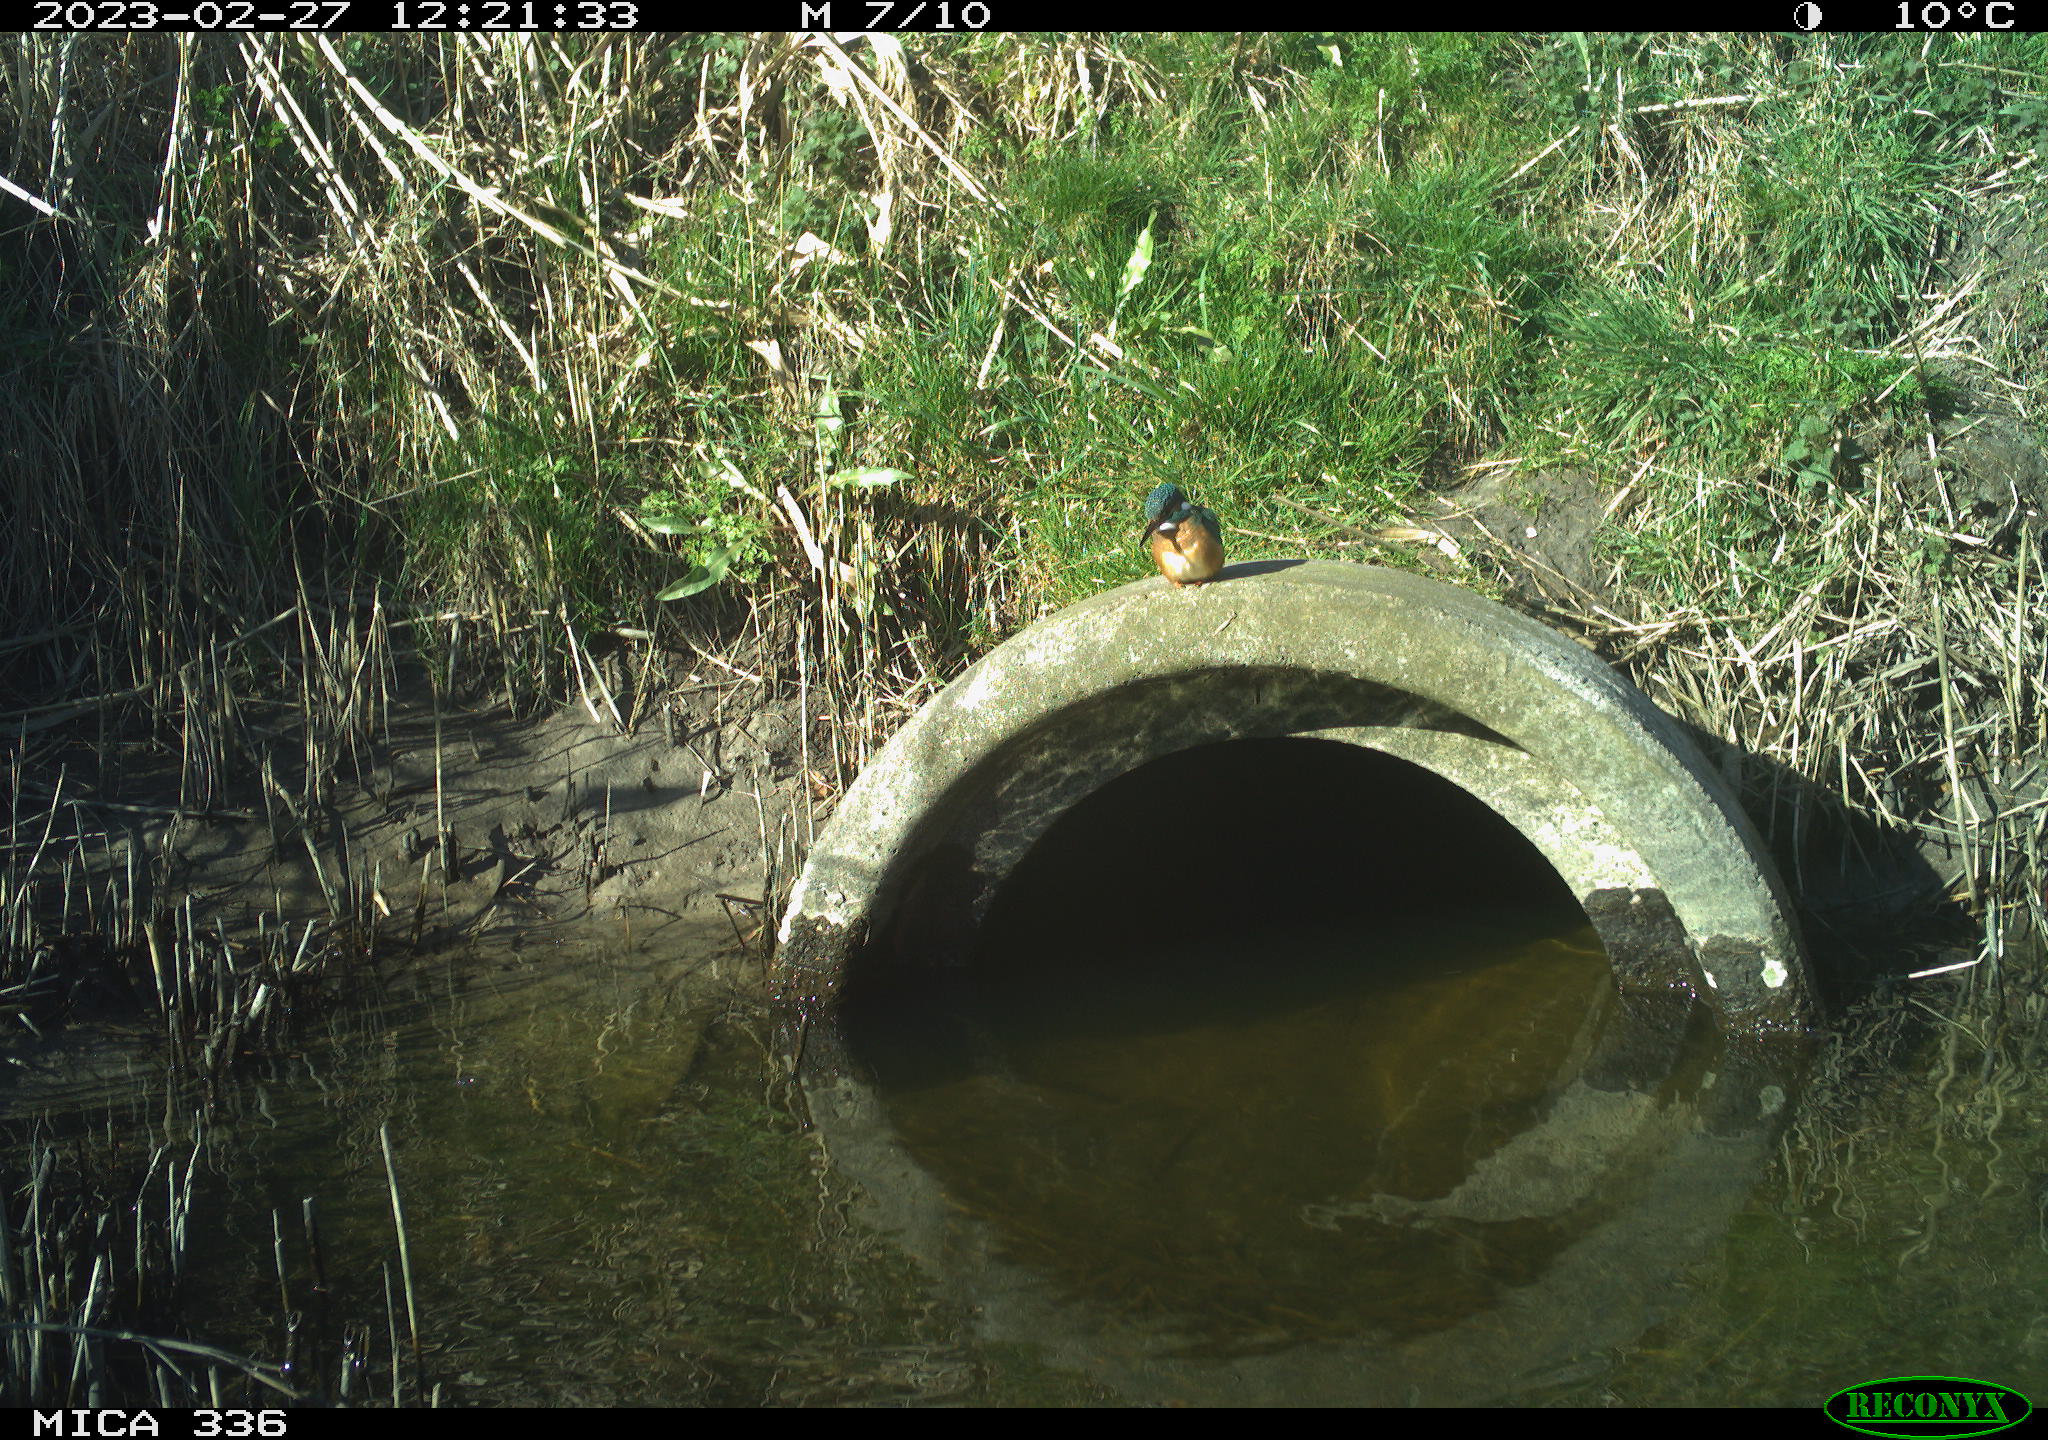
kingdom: Animalia
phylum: Chordata
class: Aves
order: Coraciiformes
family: Alcedinidae
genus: Alcedo
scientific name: Alcedo atthis
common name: Common kingfisher
